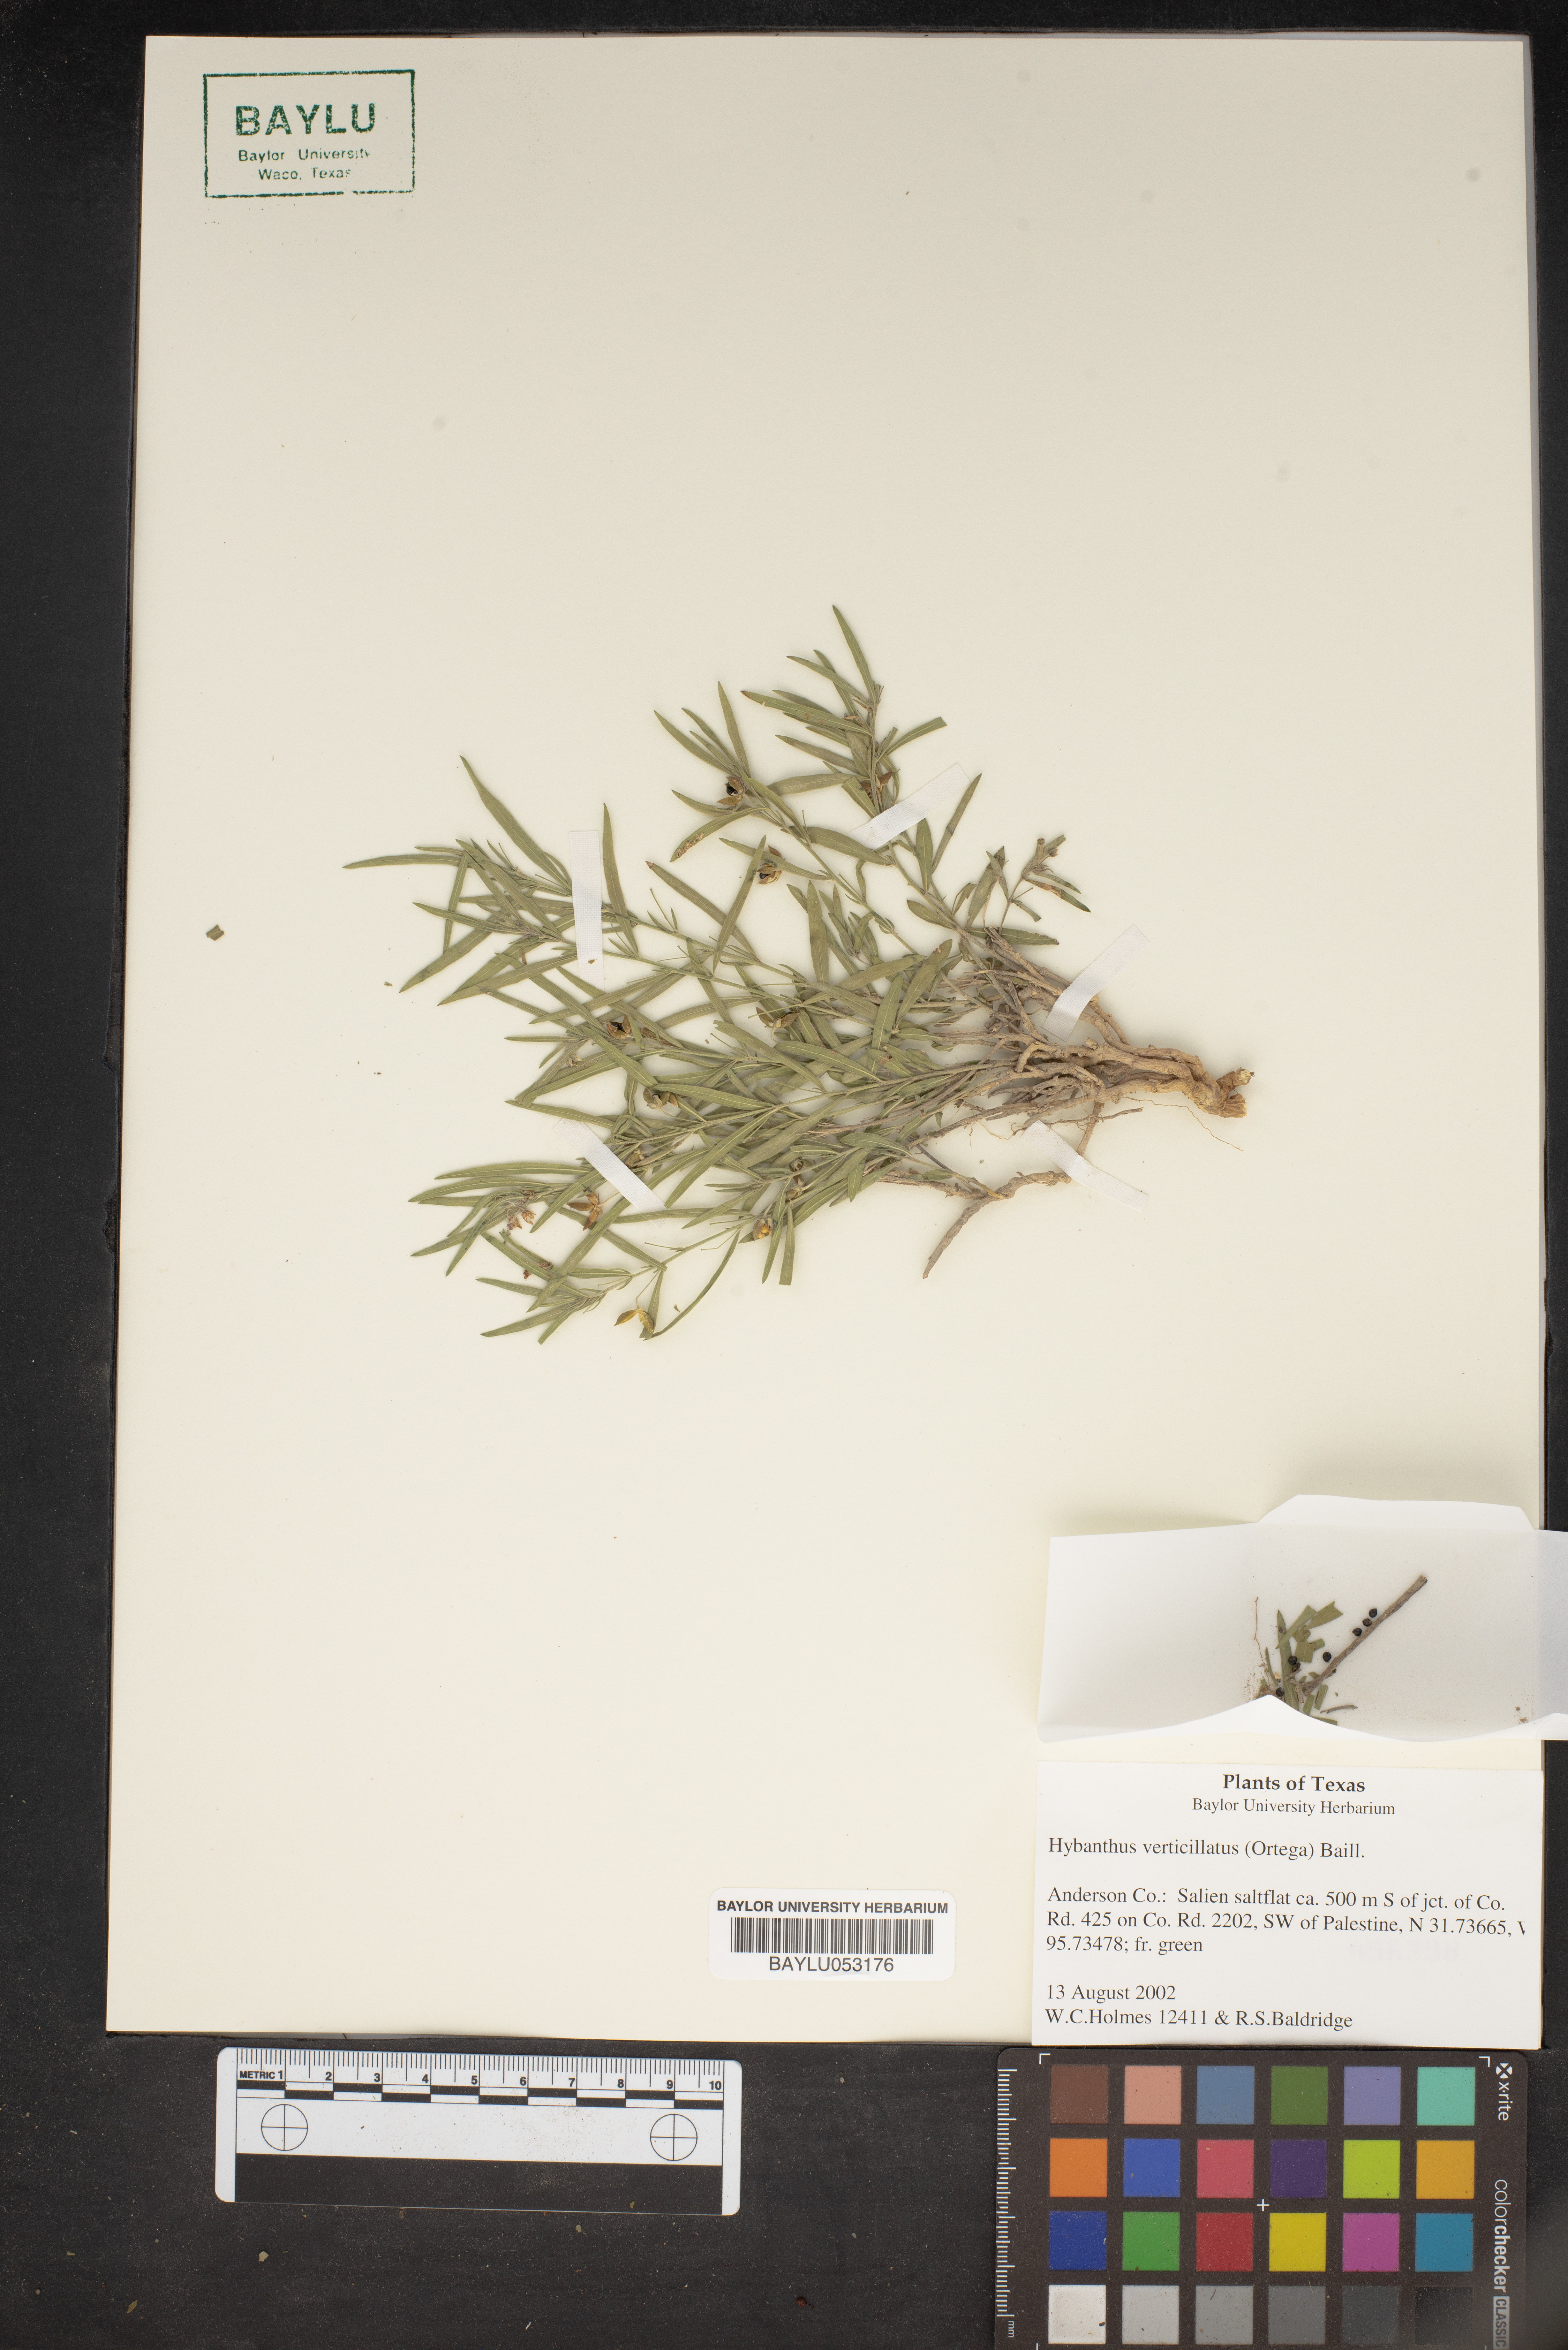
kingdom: Plantae
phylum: Tracheophyta
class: Magnoliopsida
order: Malpighiales
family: Violaceae
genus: Pombalia
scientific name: Pombalia verticillata
